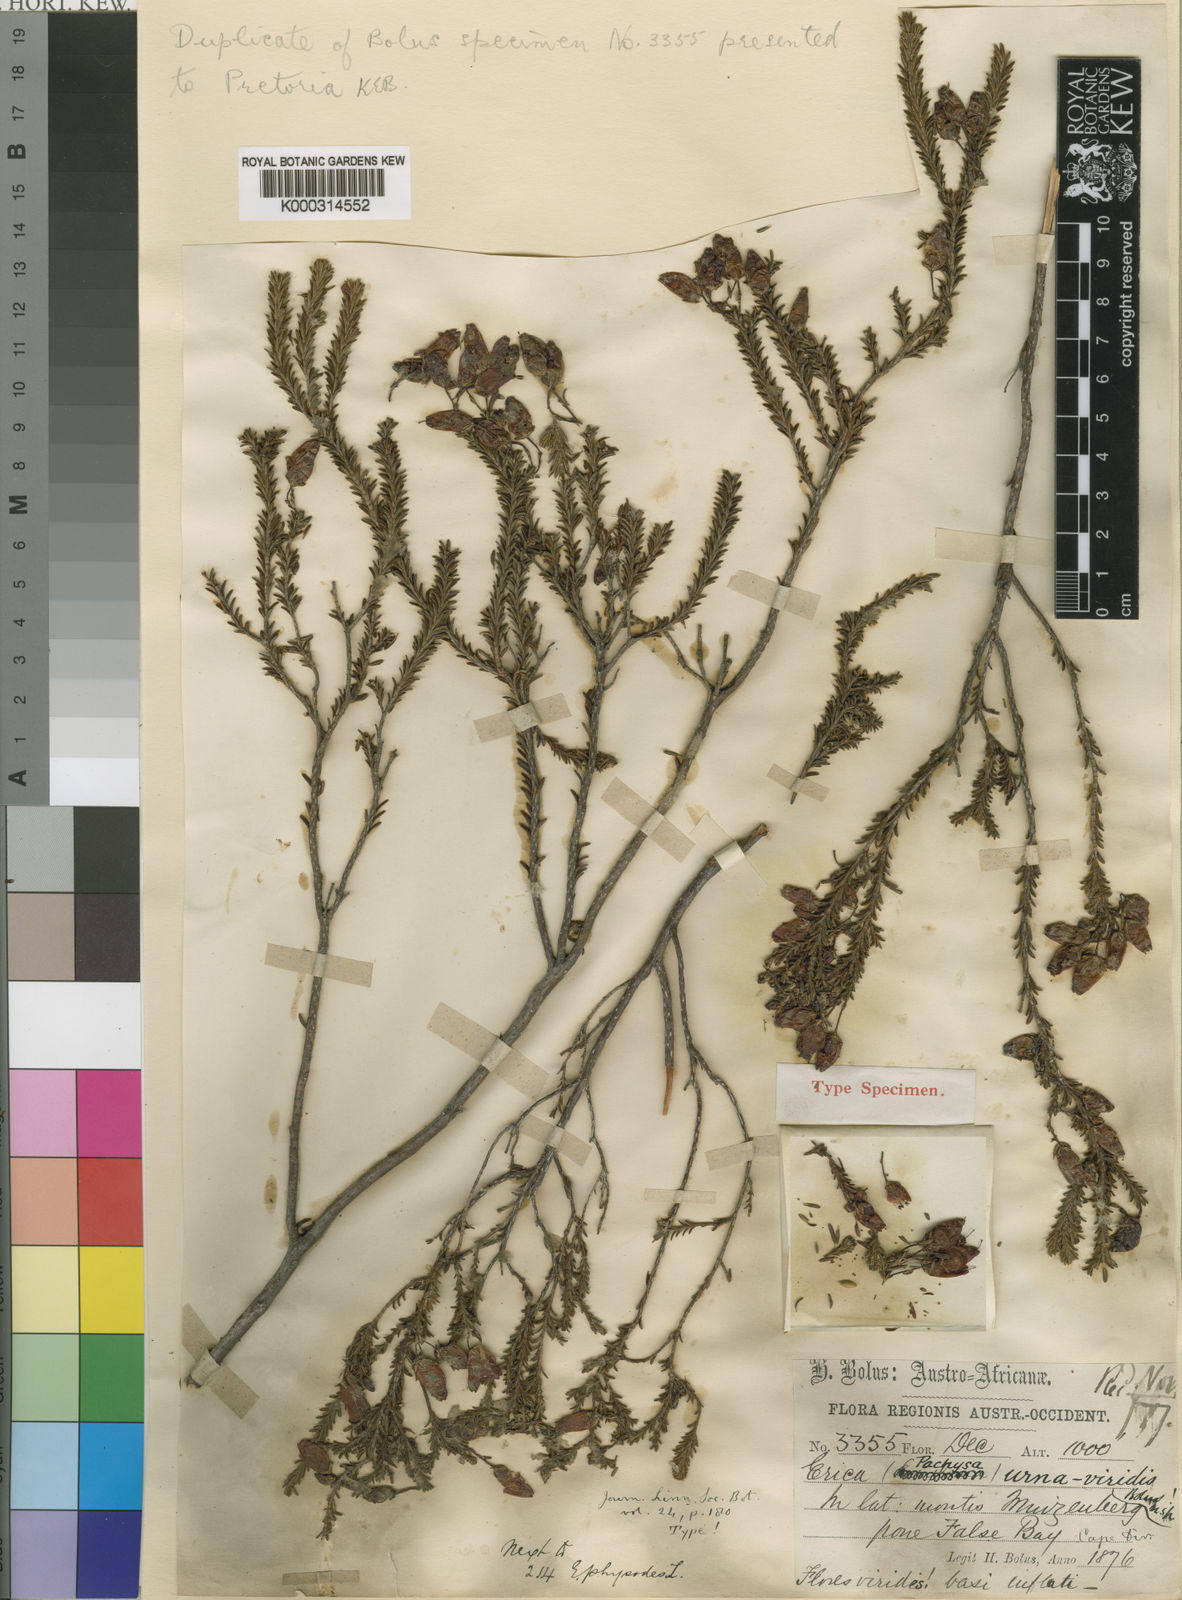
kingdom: Plantae
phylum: Tracheophyta
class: Magnoliopsida
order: Ericales
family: Ericaceae
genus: Erica
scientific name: Erica urna-viridis
